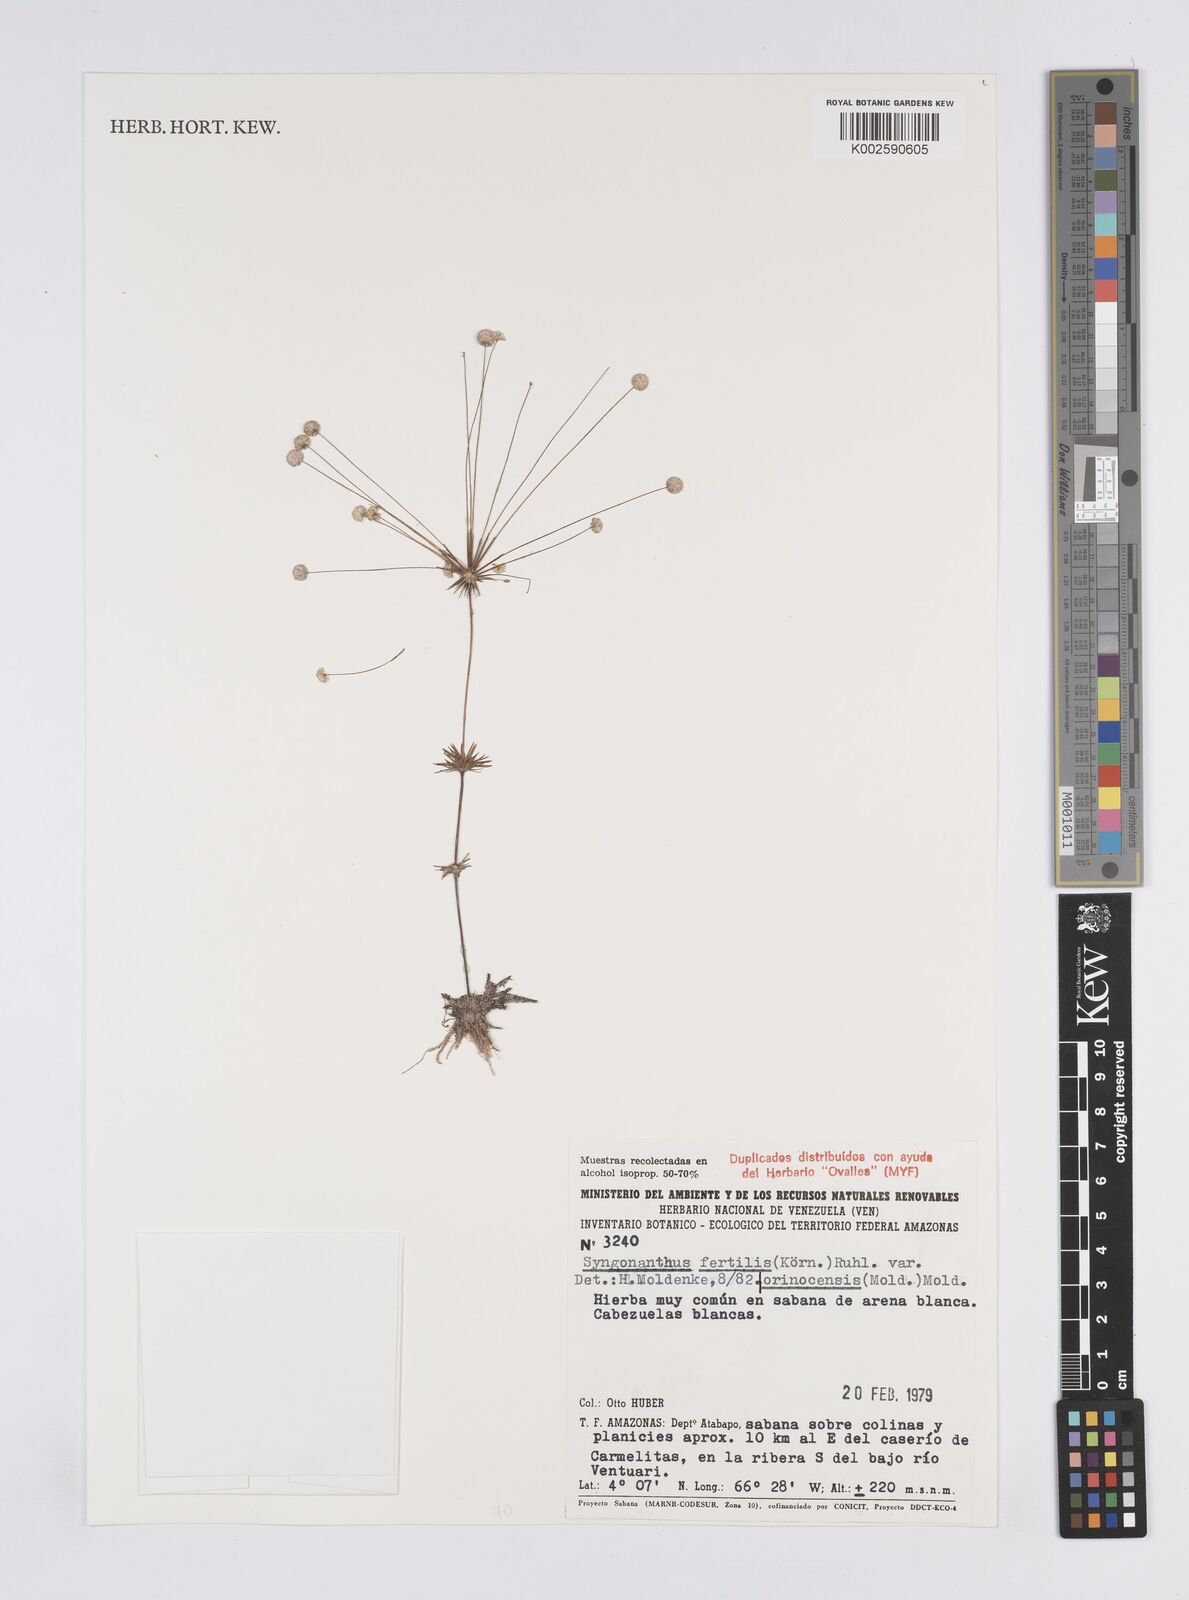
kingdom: Plantae
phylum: Tracheophyta
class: Liliopsida
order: Poales
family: Eriocaulaceae
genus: Syngonanthus
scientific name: Syngonanthus humboldtii
